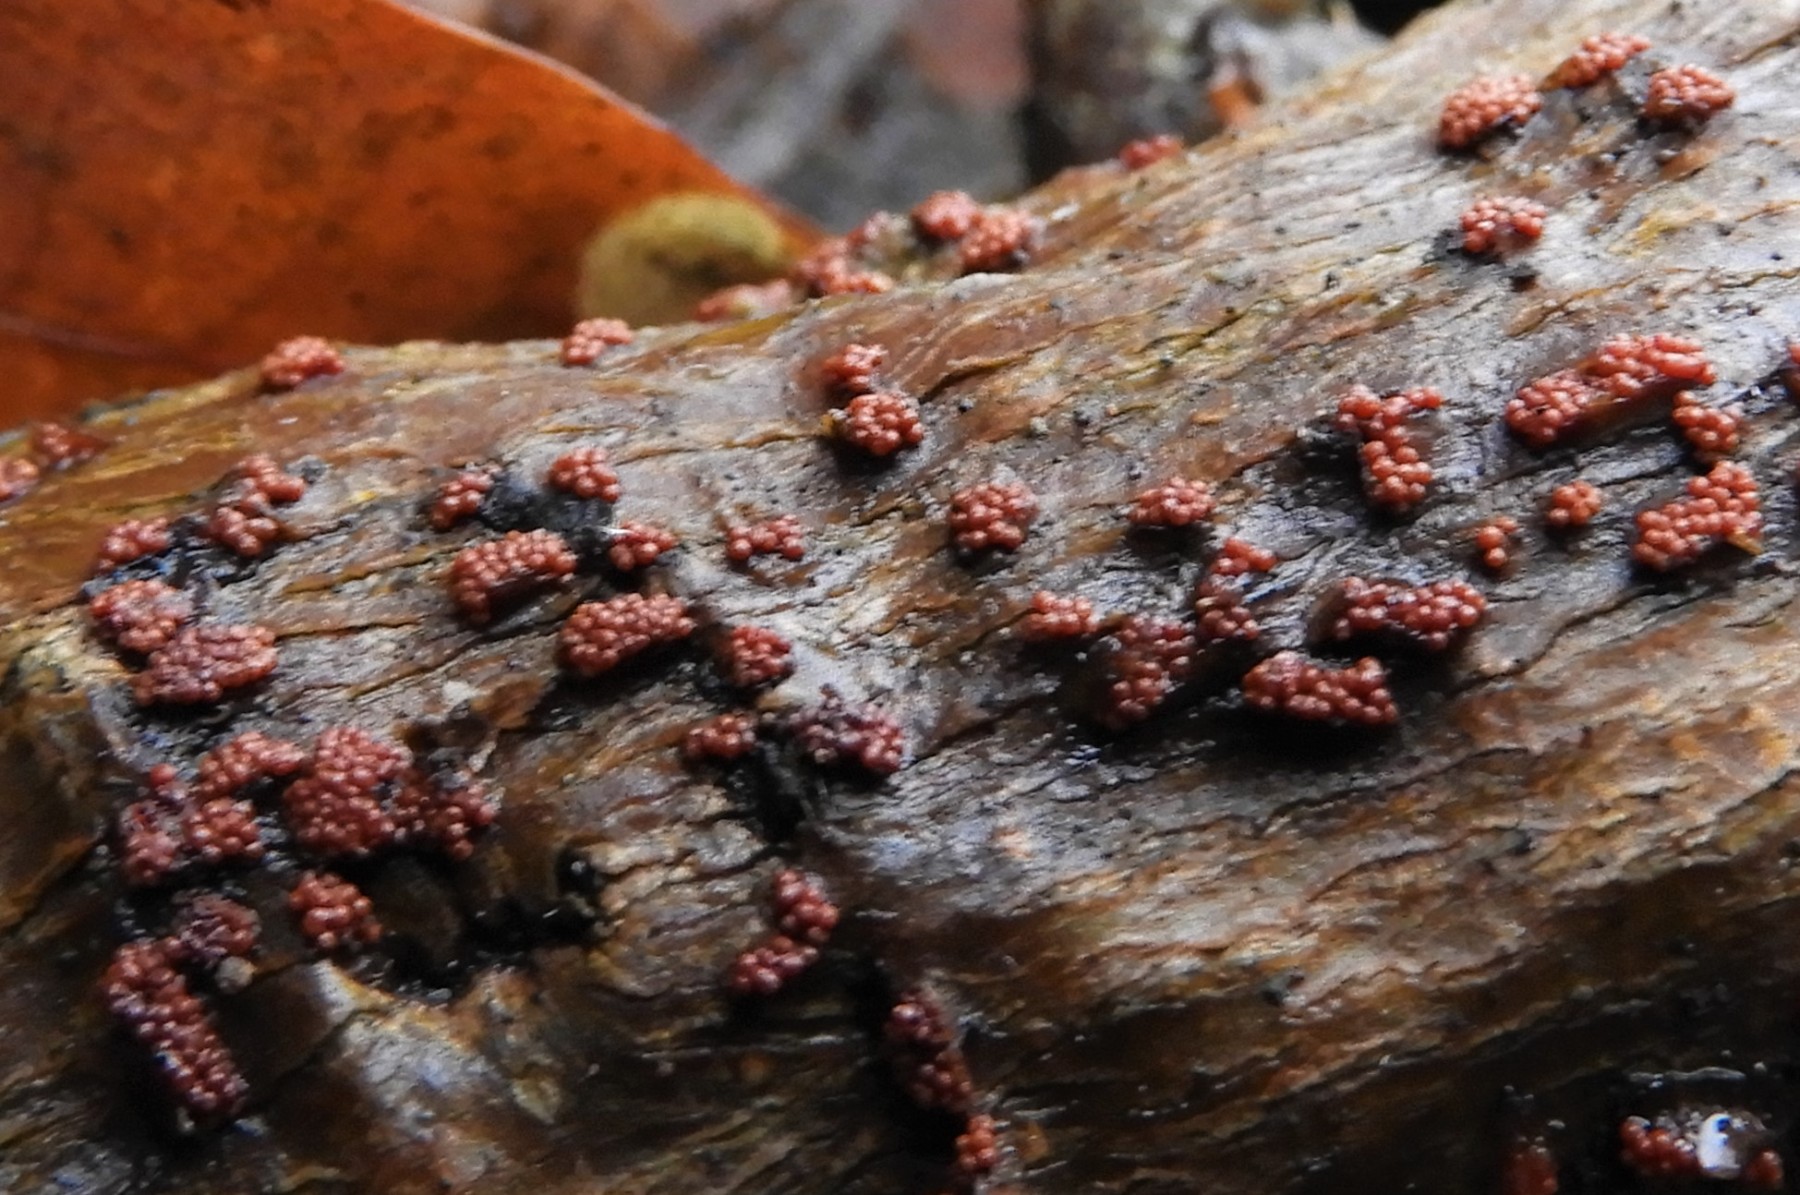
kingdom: Fungi
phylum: Ascomycota
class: Sordariomycetes
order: Hypocreales
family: Nectriaceae
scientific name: Nectriaceae
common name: cinnobersvampfamilien
